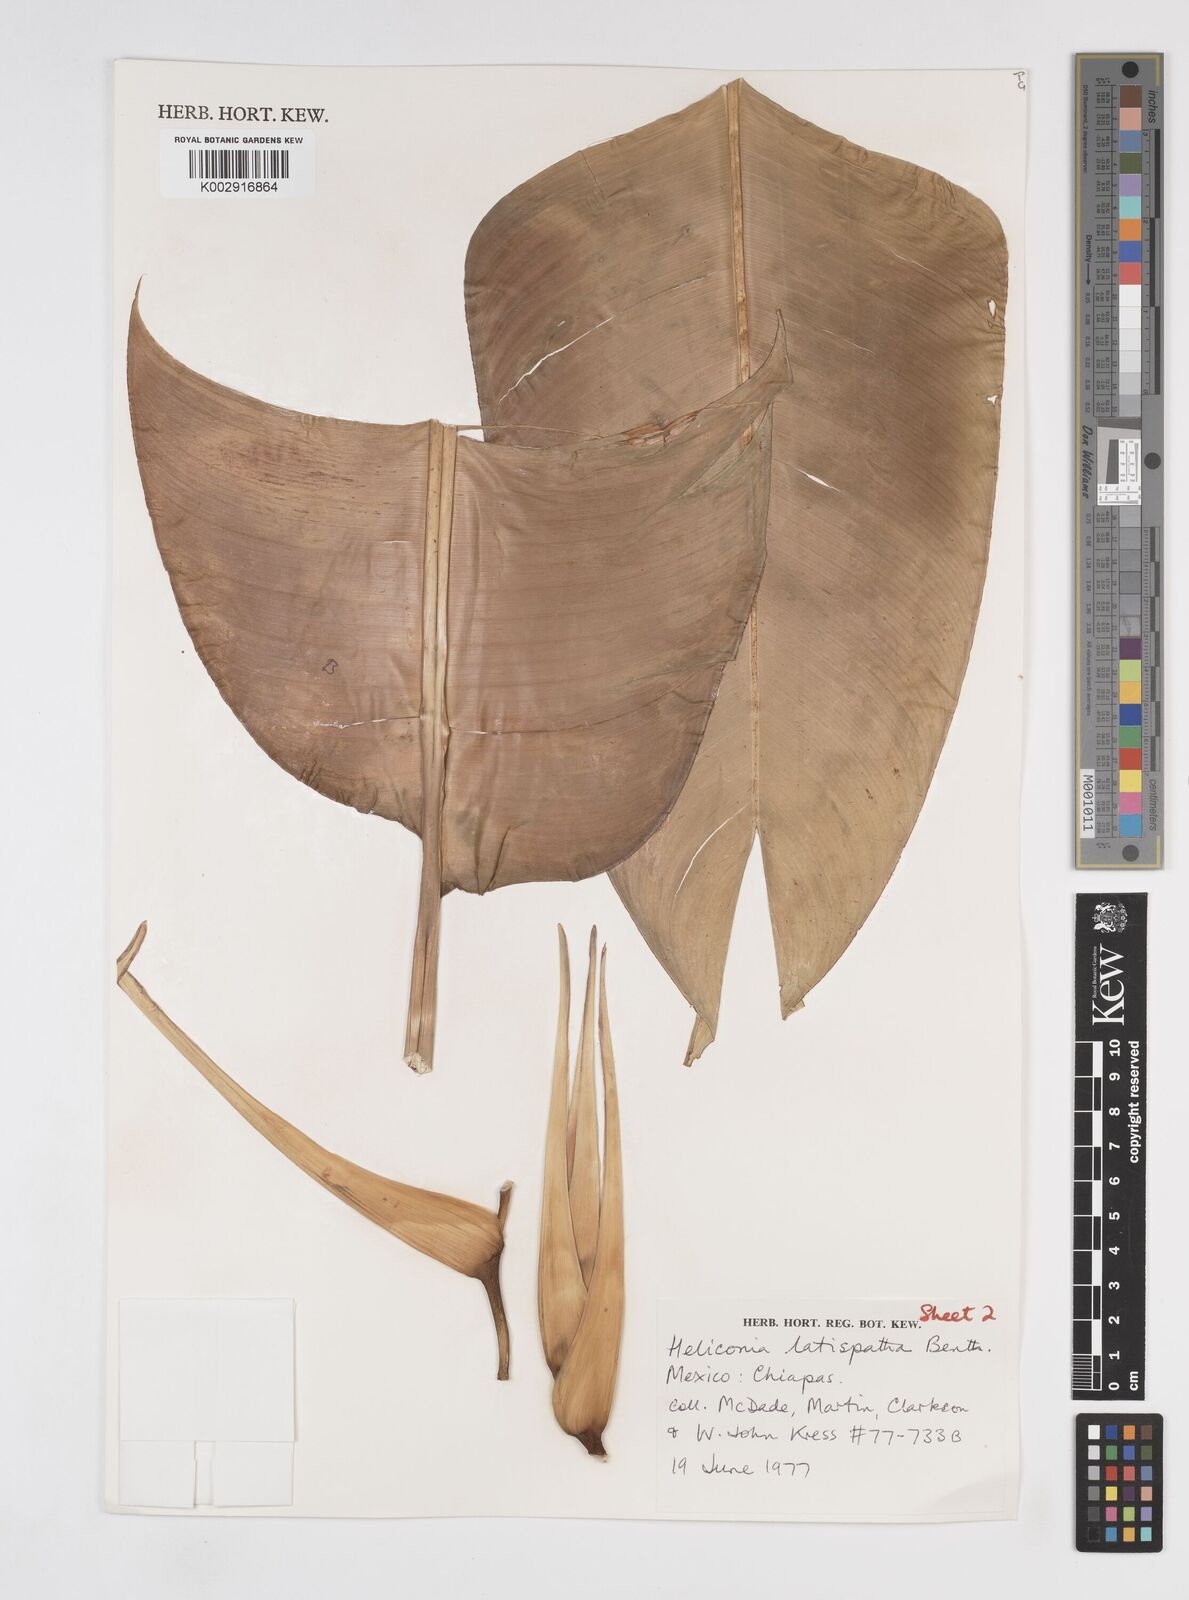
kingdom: Plantae
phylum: Tracheophyta
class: Liliopsida
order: Zingiberales
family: Heliconiaceae
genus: Heliconia
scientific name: Heliconia latispatha
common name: Expanded lobsterclaw
